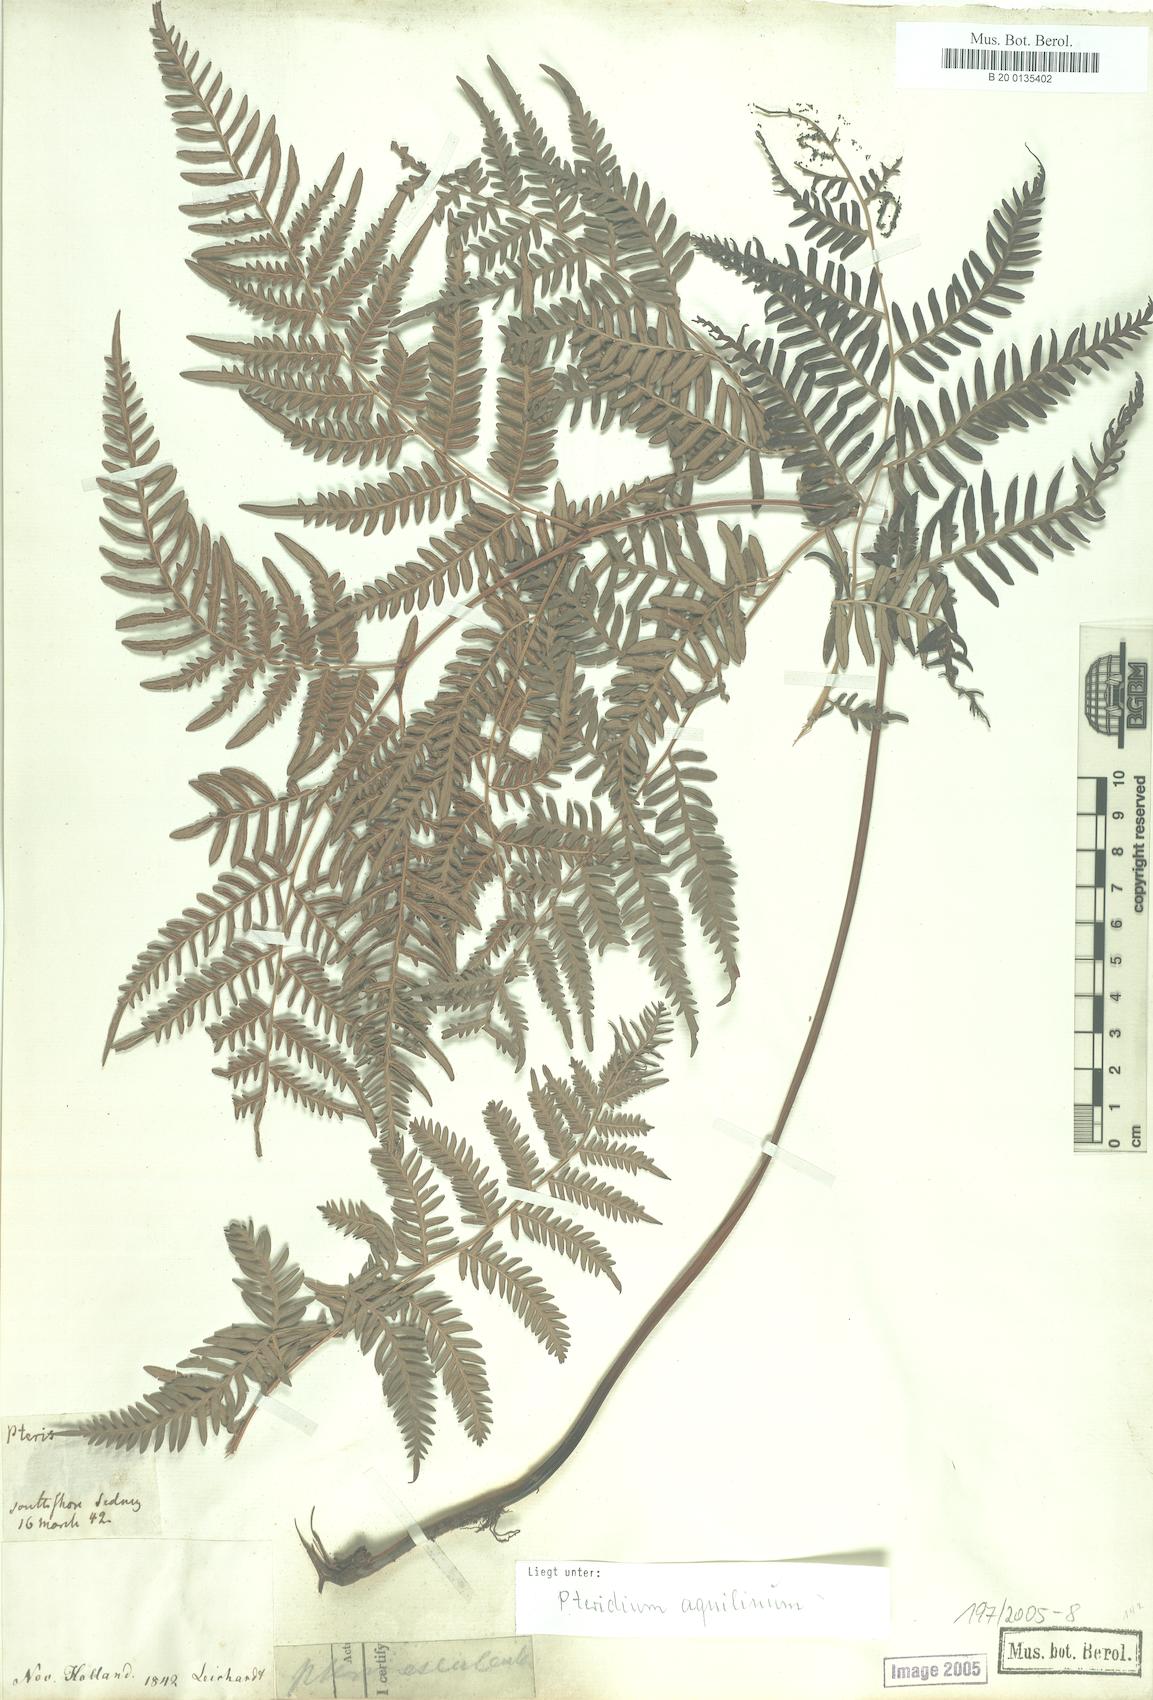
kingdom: Plantae
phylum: Tracheophyta
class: Polypodiopsida
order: Polypodiales
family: Dennstaedtiaceae
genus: Pteridium
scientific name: Pteridium aquilinum
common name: Bracken
